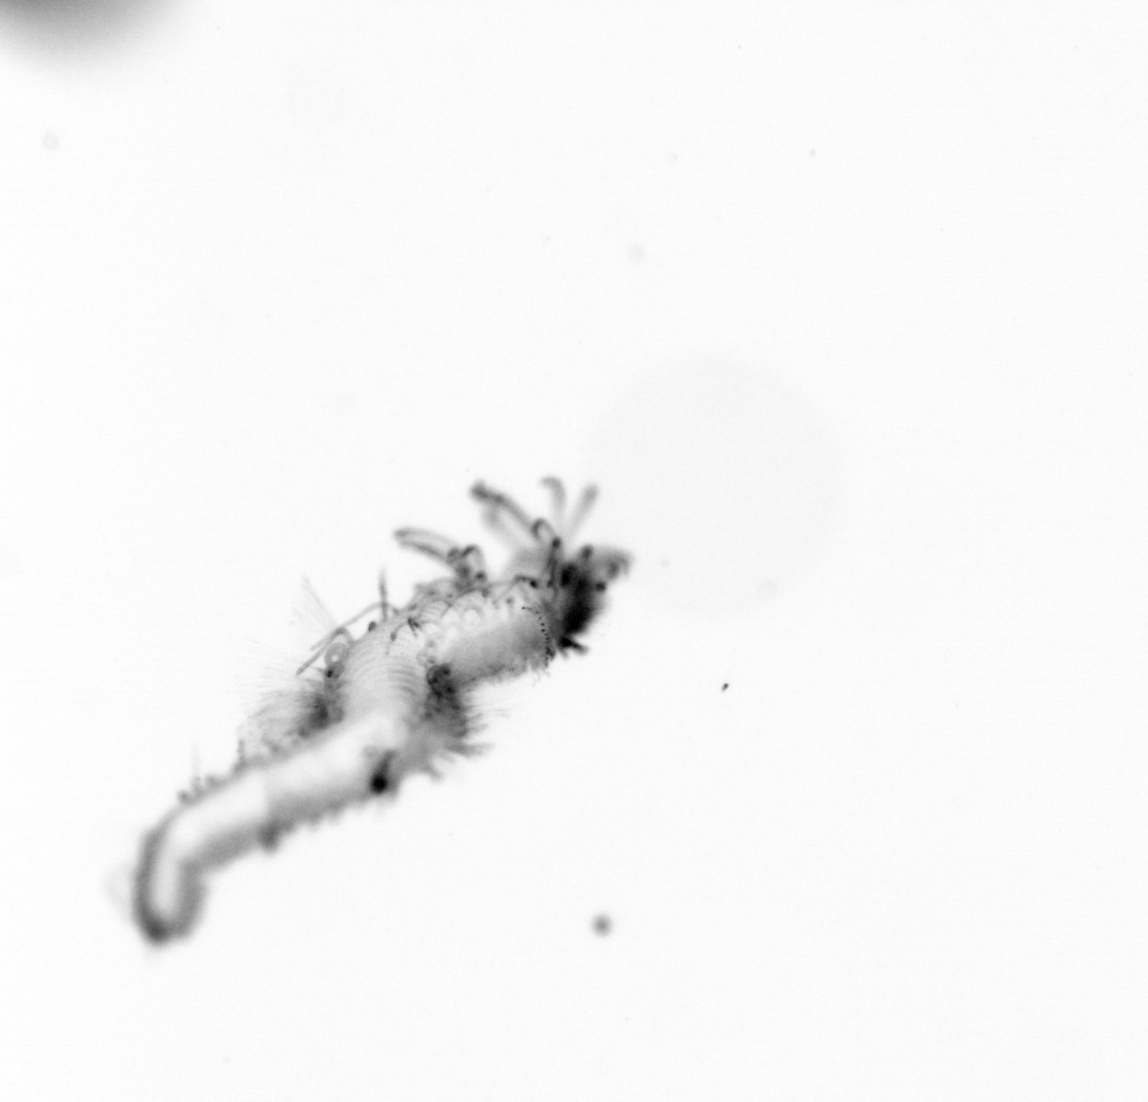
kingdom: Animalia
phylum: Annelida
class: Polychaeta
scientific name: Polychaeta
